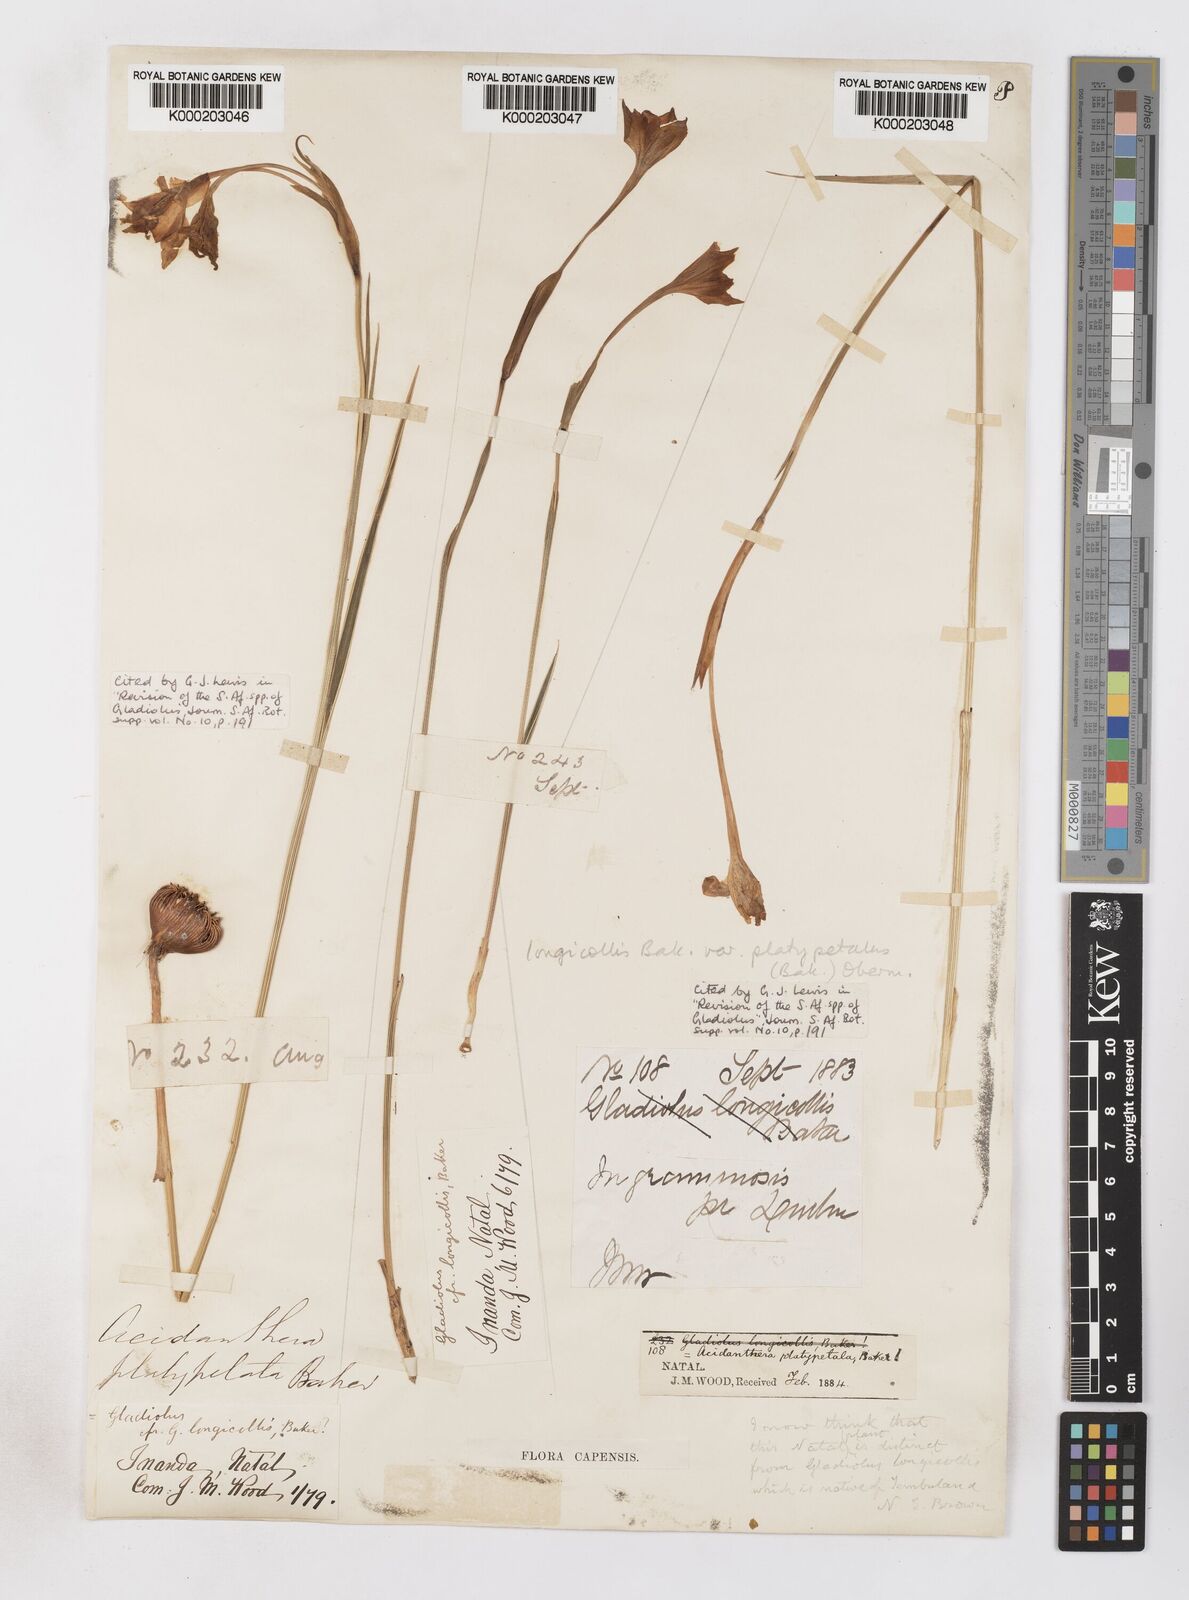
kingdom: Plantae
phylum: Tracheophyta
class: Liliopsida
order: Asparagales
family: Iridaceae
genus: Gladiolus
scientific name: Gladiolus longicollis
